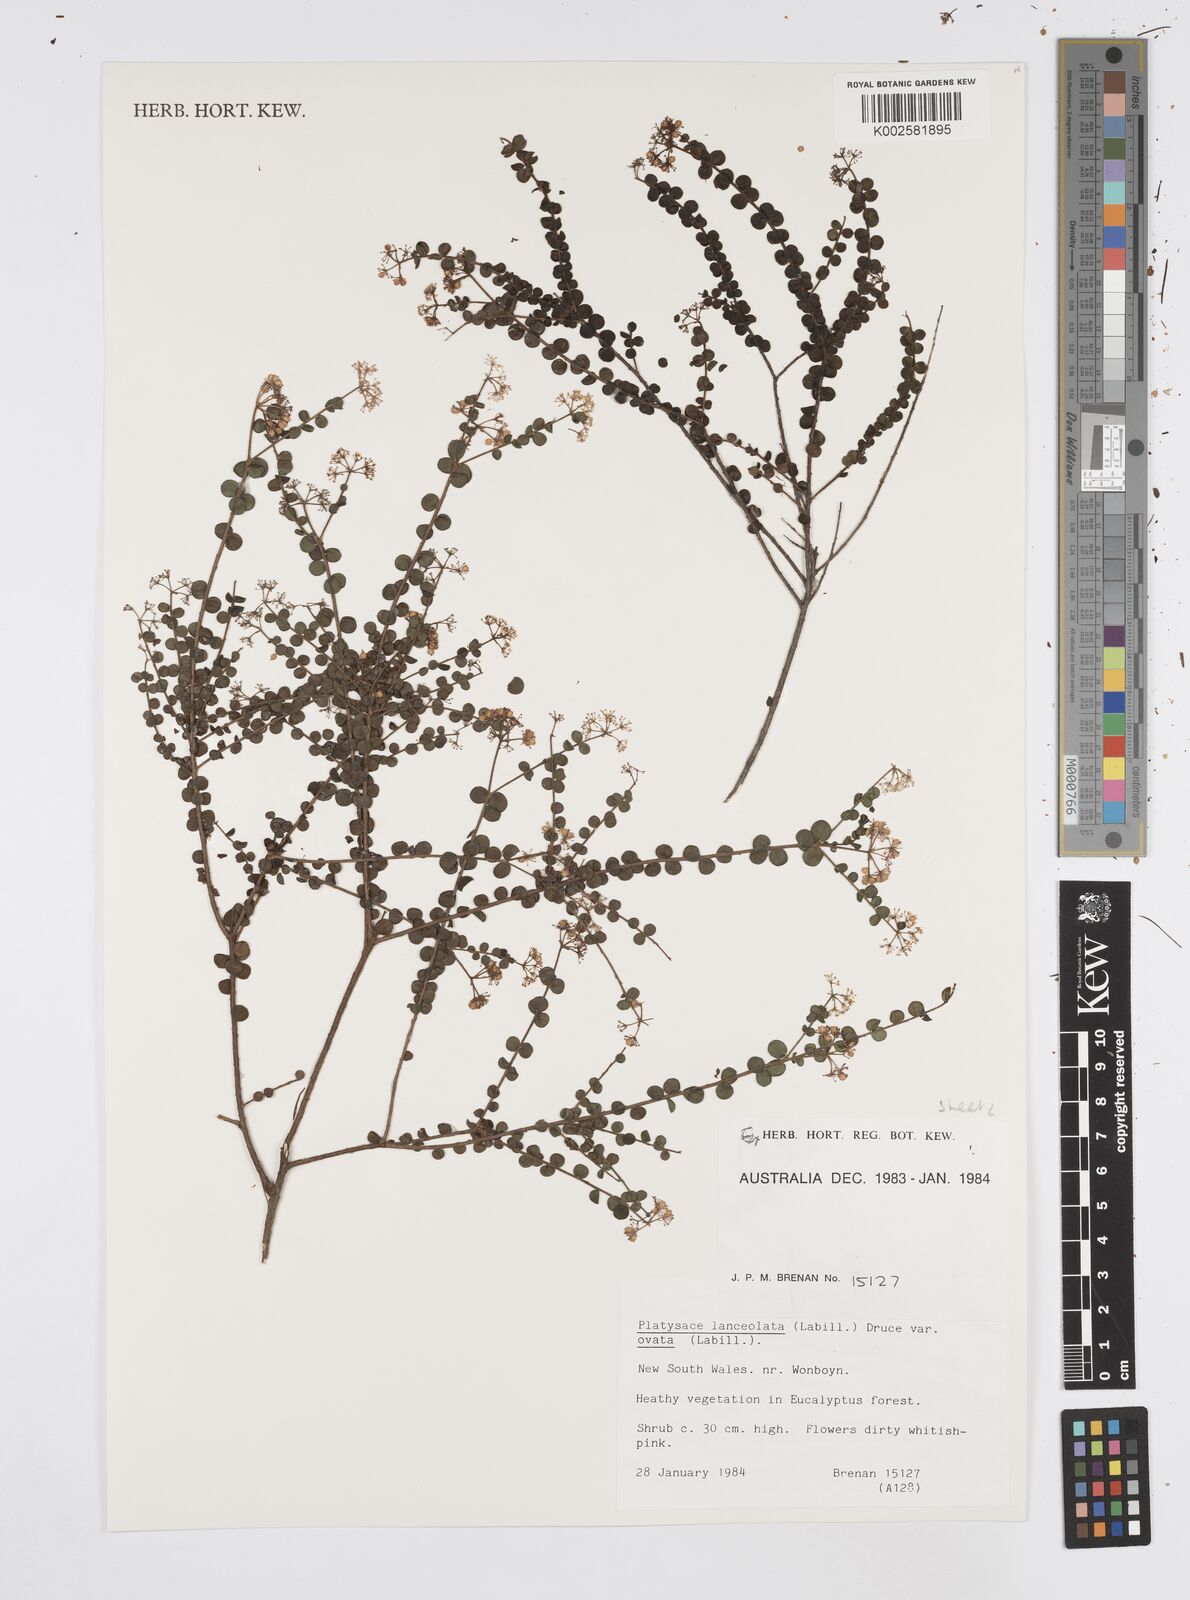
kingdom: Plantae
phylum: Tracheophyta
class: Magnoliopsida
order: Apiales
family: Apiaceae
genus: Platysace
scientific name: Platysace lanceolata
